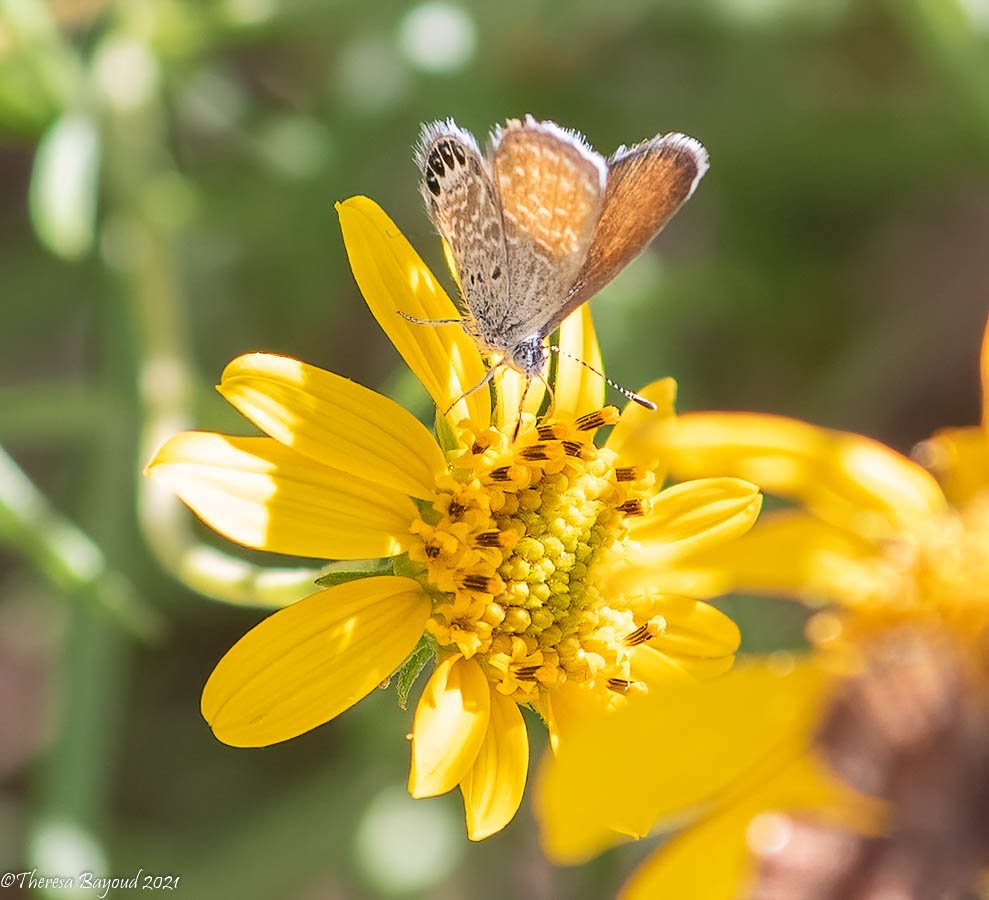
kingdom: Animalia
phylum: Arthropoda
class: Insecta
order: Lepidoptera
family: Lycaenidae
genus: Brephidium
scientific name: Brephidium exilis
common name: Western Pygmy-Blue
